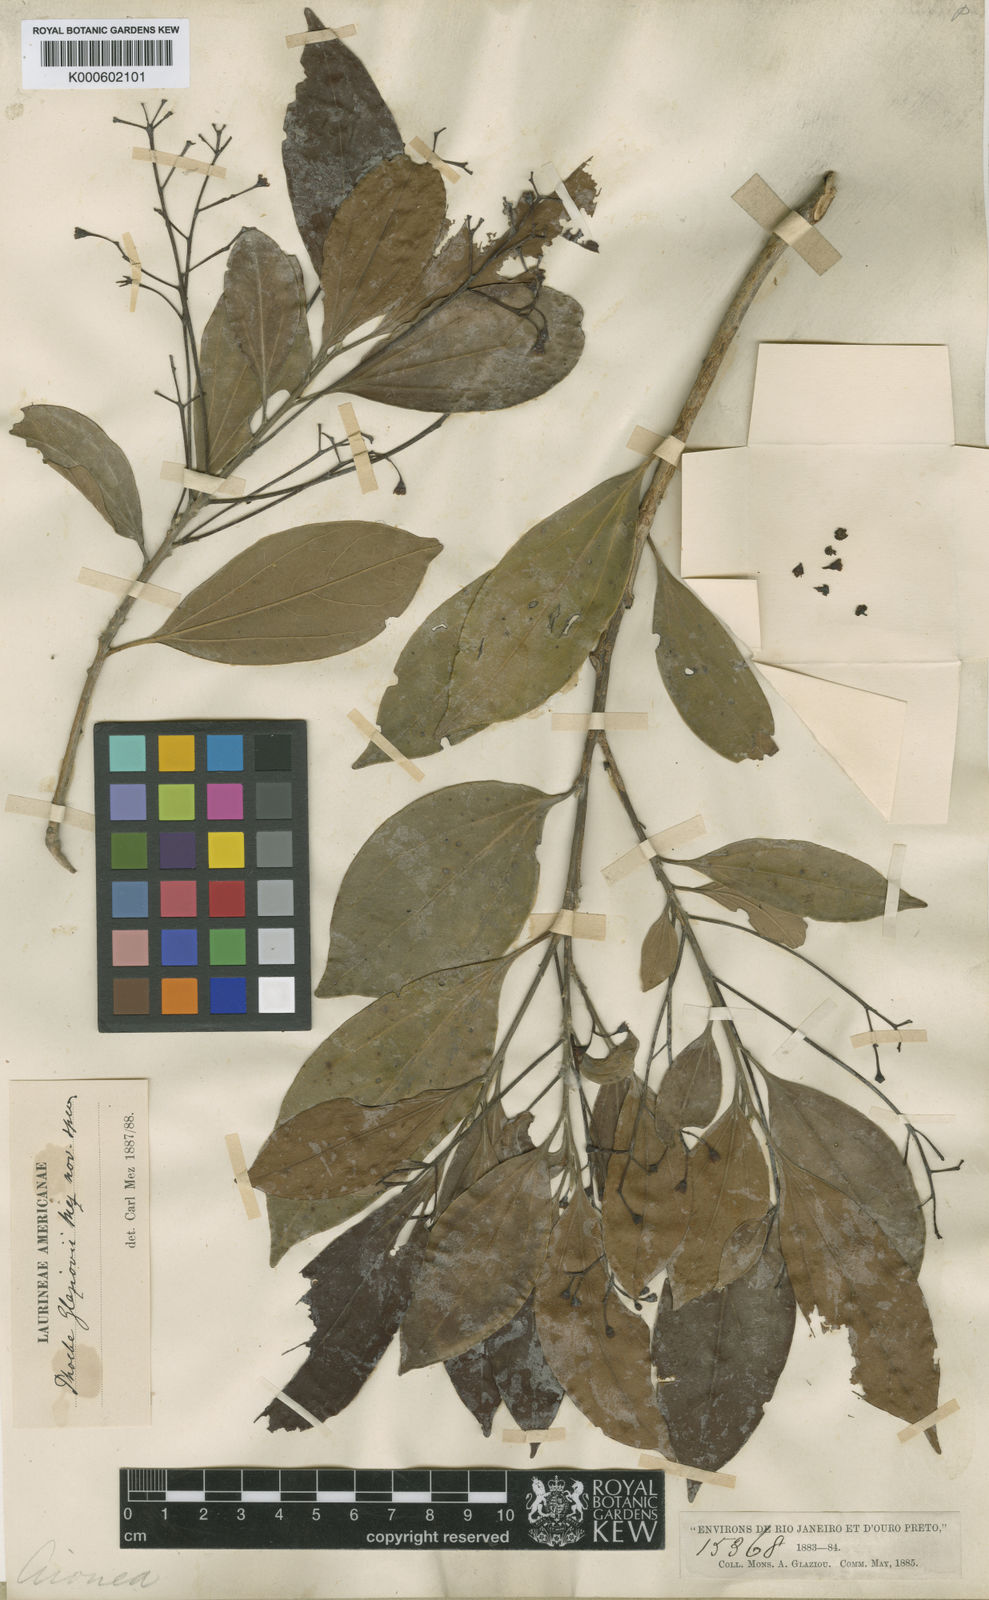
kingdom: Plantae
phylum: Tracheophyta
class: Magnoliopsida
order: Laurales
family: Lauraceae
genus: Aiouea
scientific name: Aiouea glaziovii
